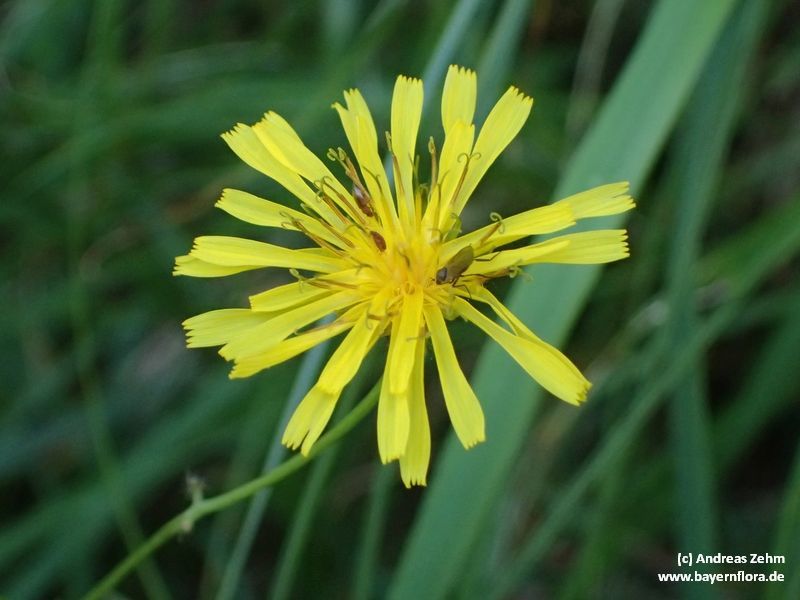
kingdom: Plantae
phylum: Tracheophyta
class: Magnoliopsida
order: Asterales
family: Asteraceae
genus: Crepis
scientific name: Crepis paludosa
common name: Marsh hawk's-beard
